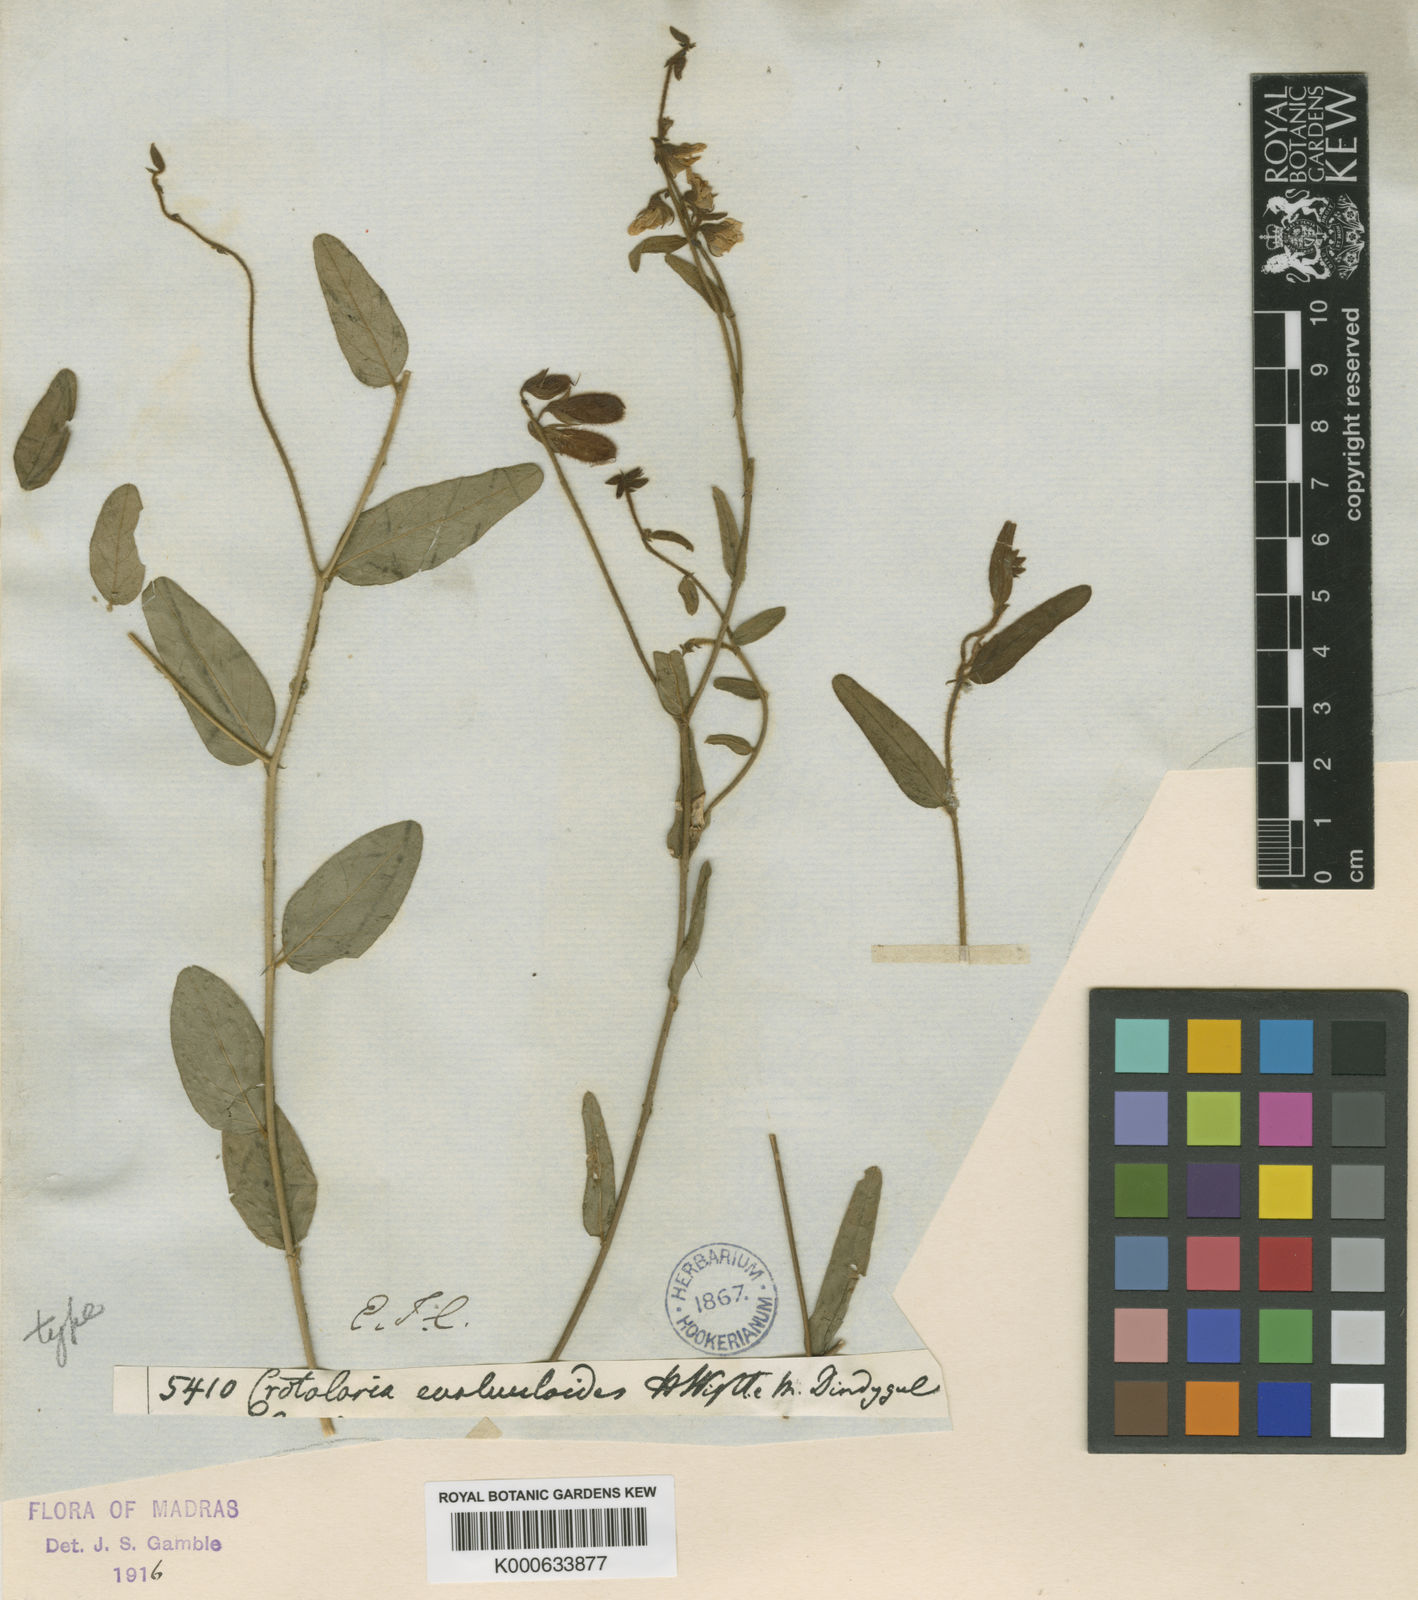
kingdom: Plantae
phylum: Tracheophyta
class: Magnoliopsida
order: Fabales
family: Fabaceae
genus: Crotalaria
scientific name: Crotalaria evolvuloides
